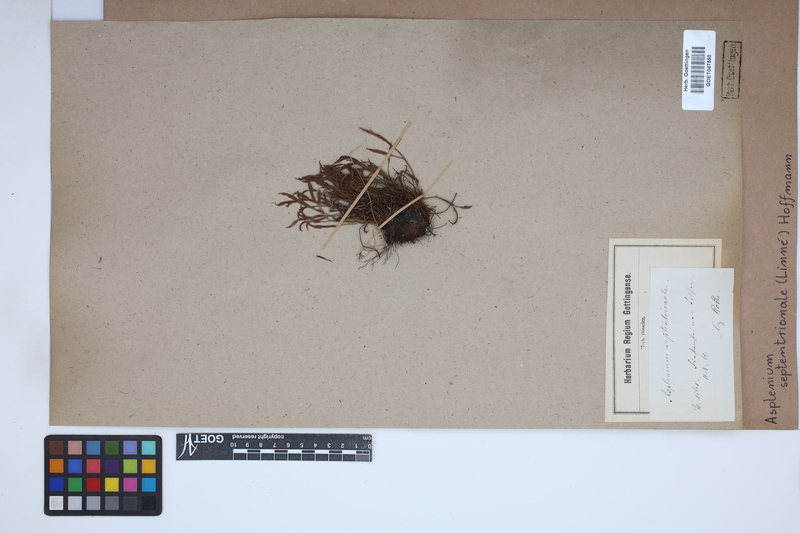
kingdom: Plantae
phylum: Tracheophyta
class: Polypodiopsida
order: Polypodiales
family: Aspleniaceae
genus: Asplenium
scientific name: Asplenium septentrionale
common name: Forked spleenwort
